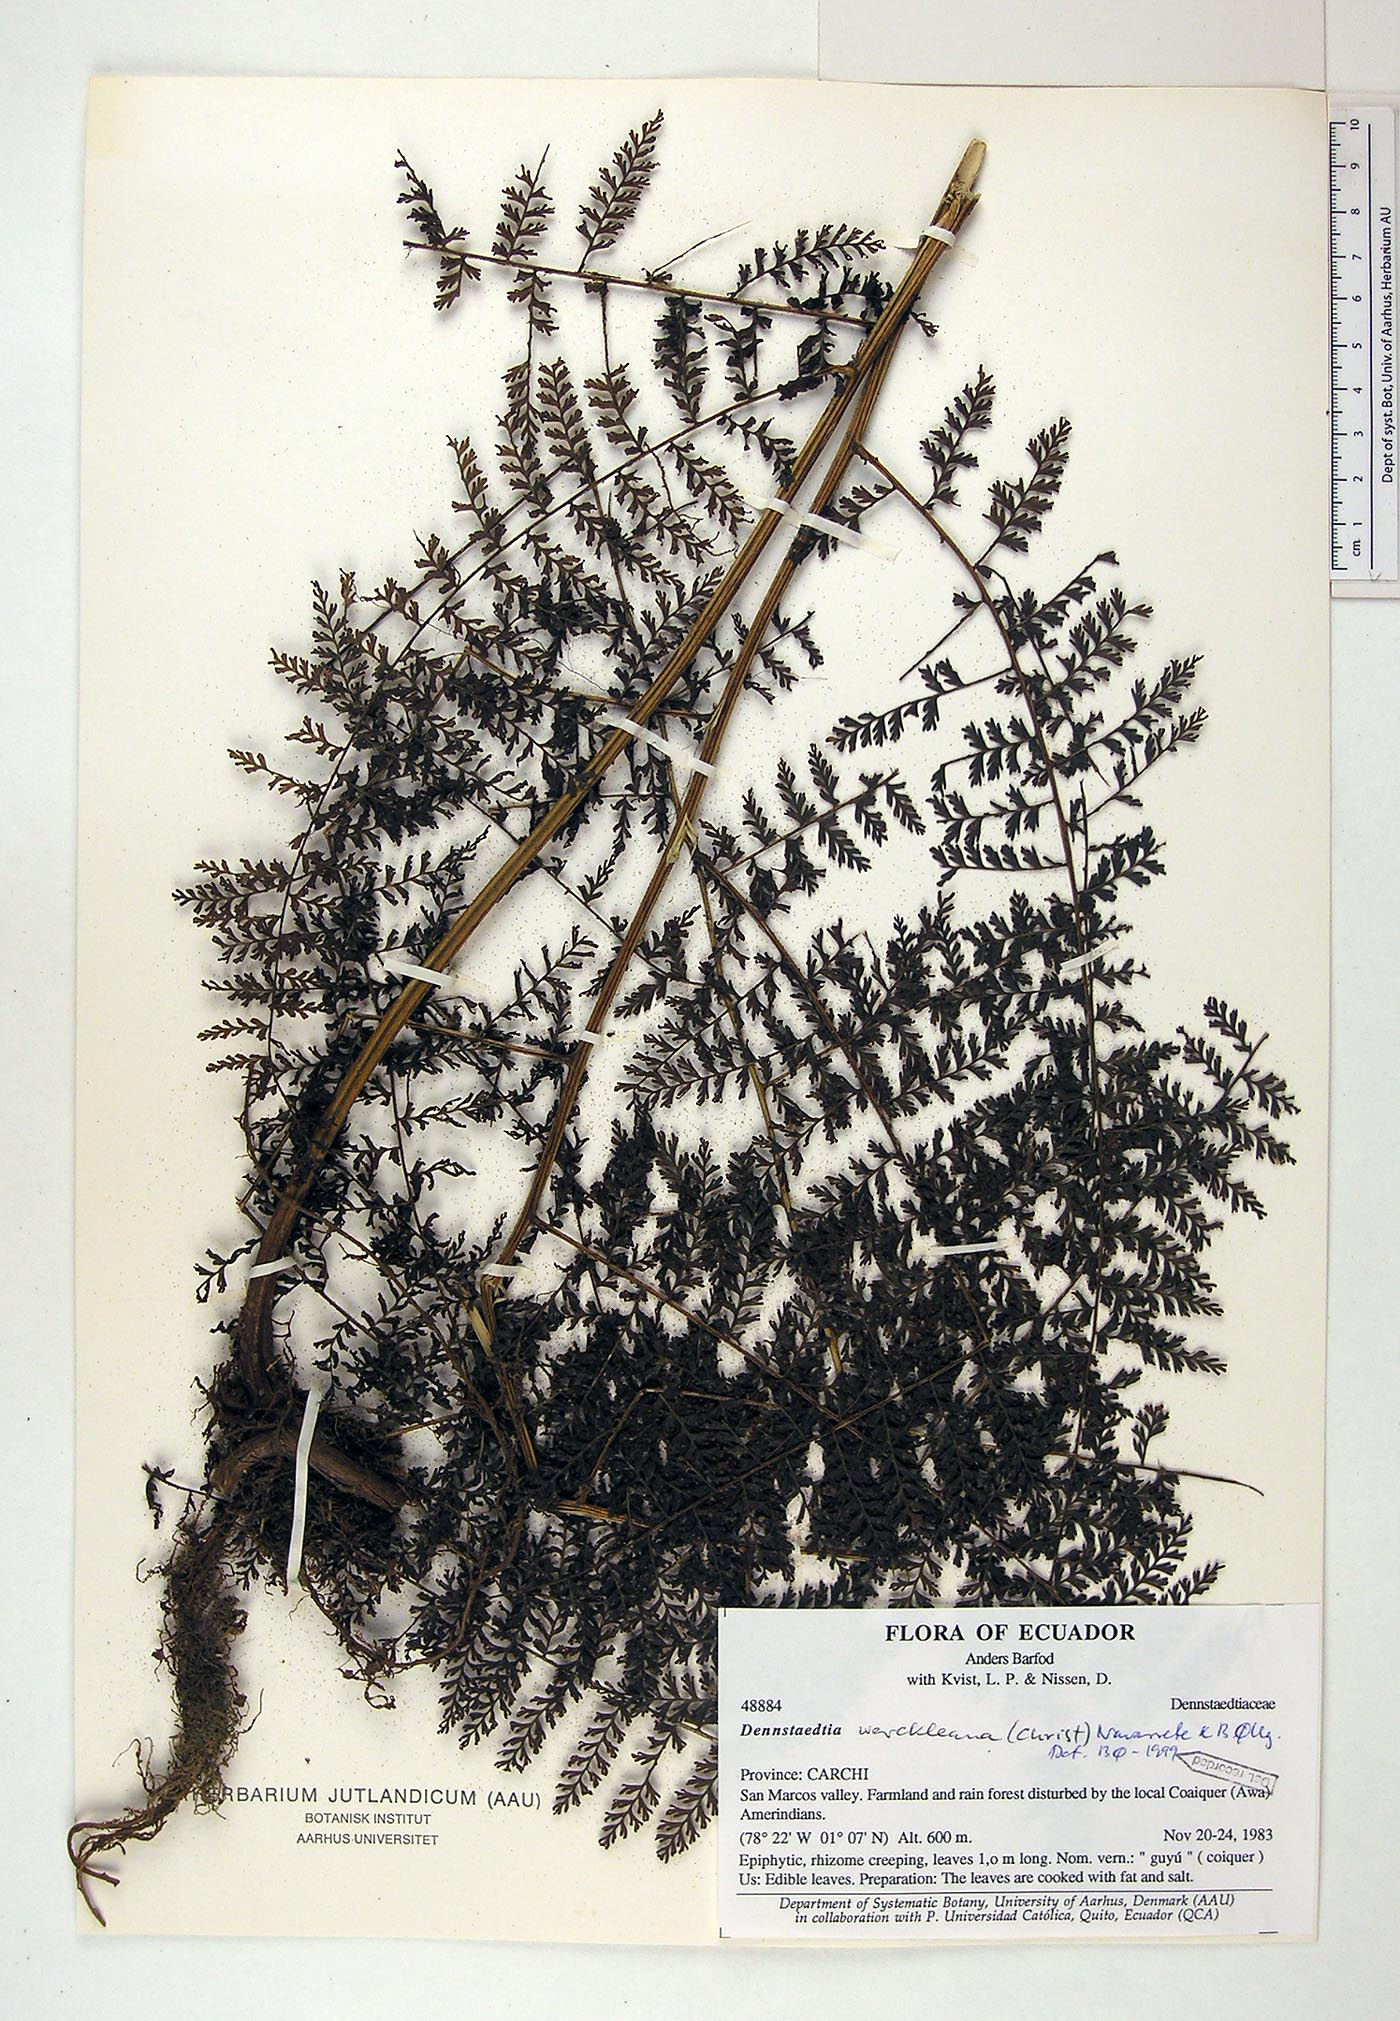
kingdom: Plantae
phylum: Tracheophyta
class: Polypodiopsida
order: Polypodiales
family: Dennstaedtiaceae
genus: Dennstaedtia
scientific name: Dennstaedtia werckleana
